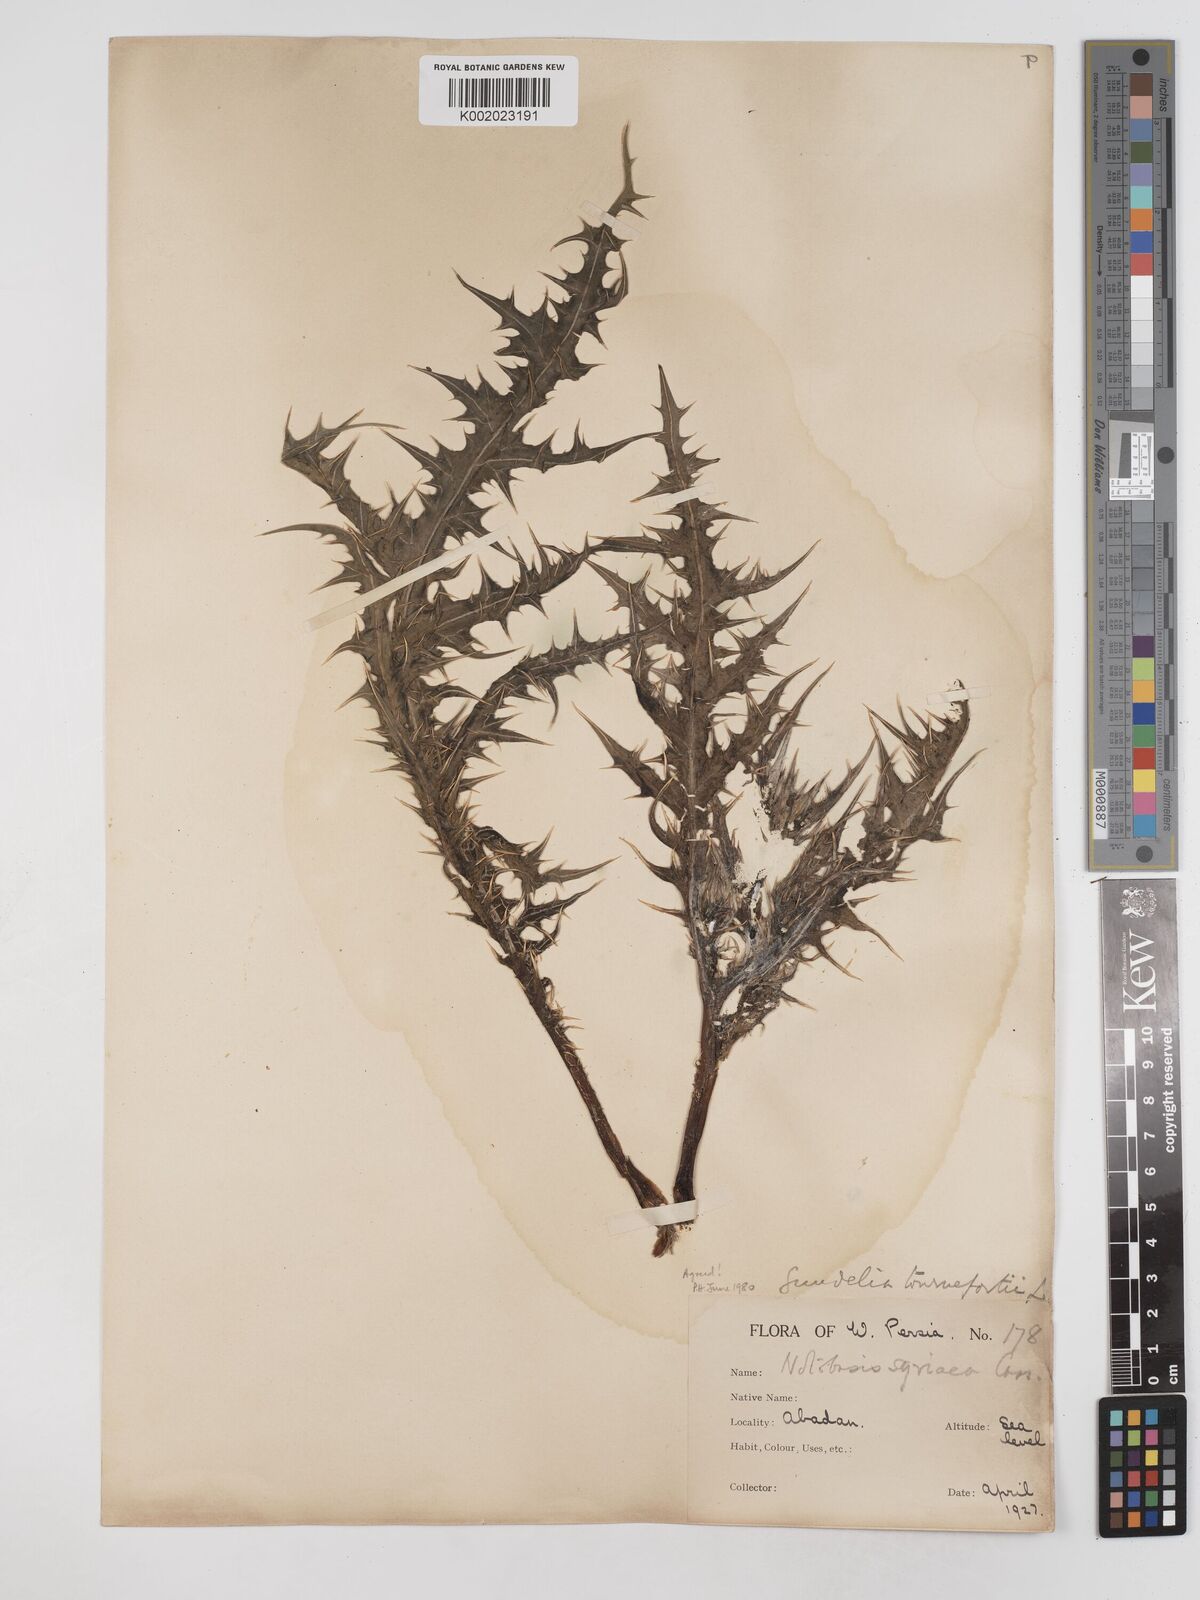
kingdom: Plantae
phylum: Tracheophyta
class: Magnoliopsida
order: Asterales
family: Asteraceae
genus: Gundelia
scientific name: Gundelia tournefortii
